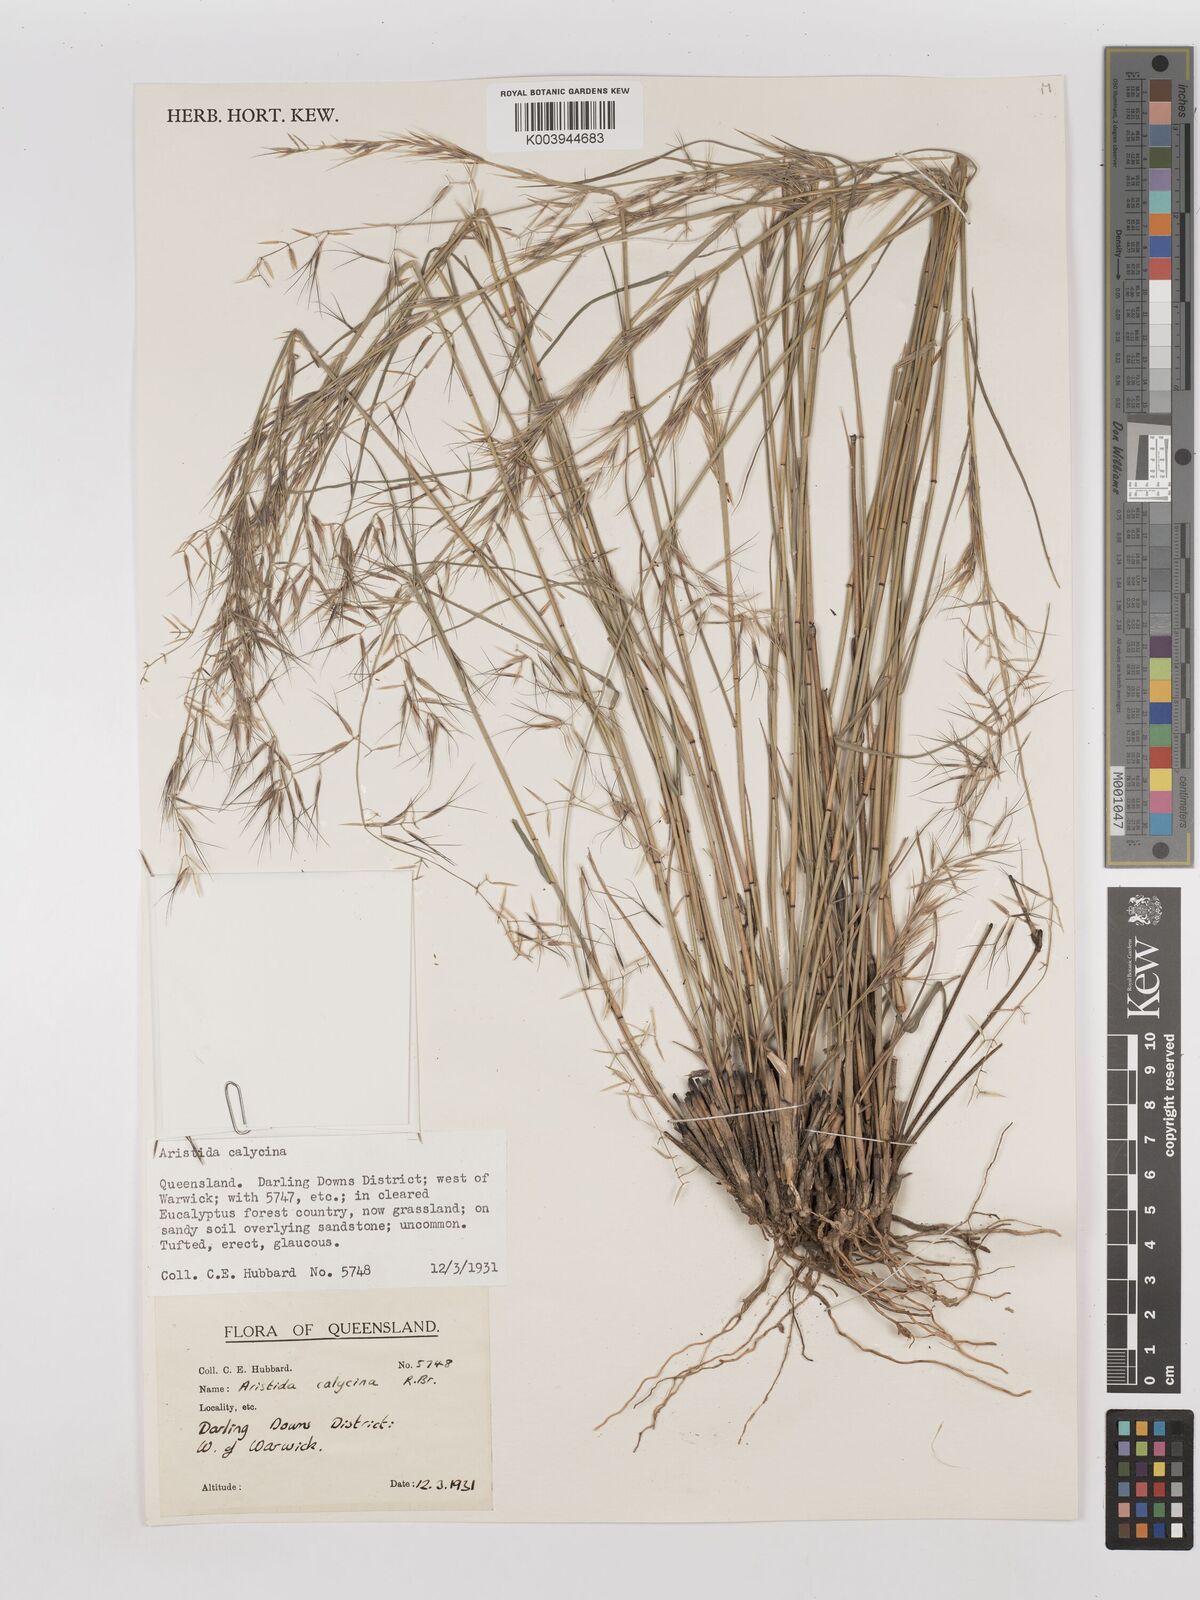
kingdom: Plantae
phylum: Tracheophyta
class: Liliopsida
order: Poales
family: Poaceae
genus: Aristida
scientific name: Aristida calycina
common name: Dark wire grass
